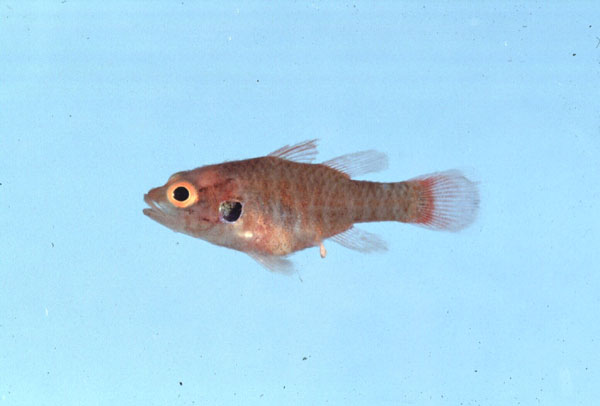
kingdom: Animalia
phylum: Chordata
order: Perciformes
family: Apogonidae
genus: Fowleria
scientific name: Fowleria aurita
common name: Crosseyed cardinalfish
